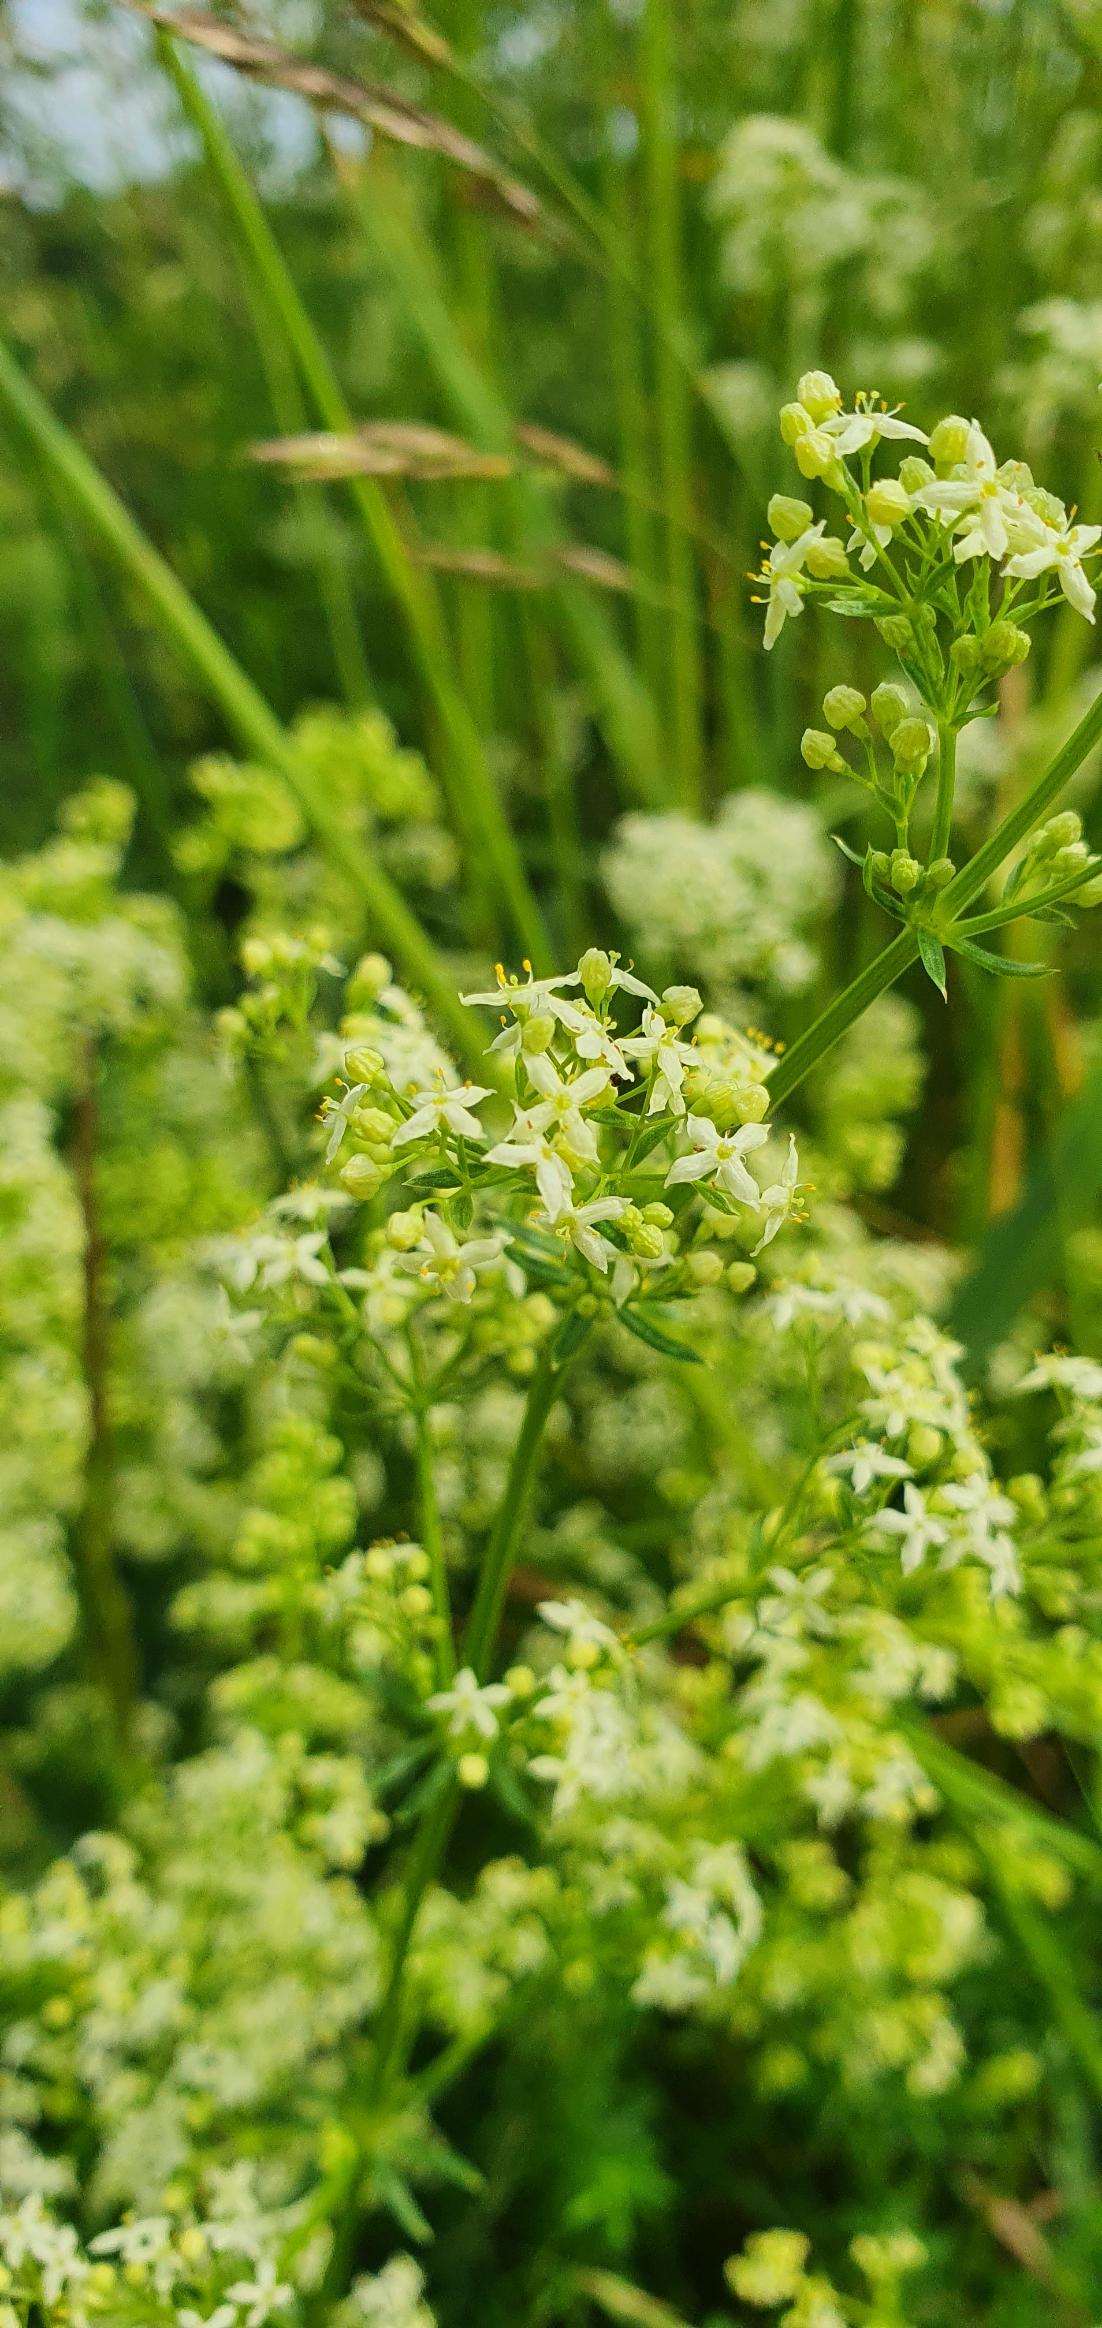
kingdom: Plantae
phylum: Tracheophyta
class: Magnoliopsida
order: Gentianales
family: Rubiaceae
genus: Galium
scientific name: Galium mollugo
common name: Hvid snerre
